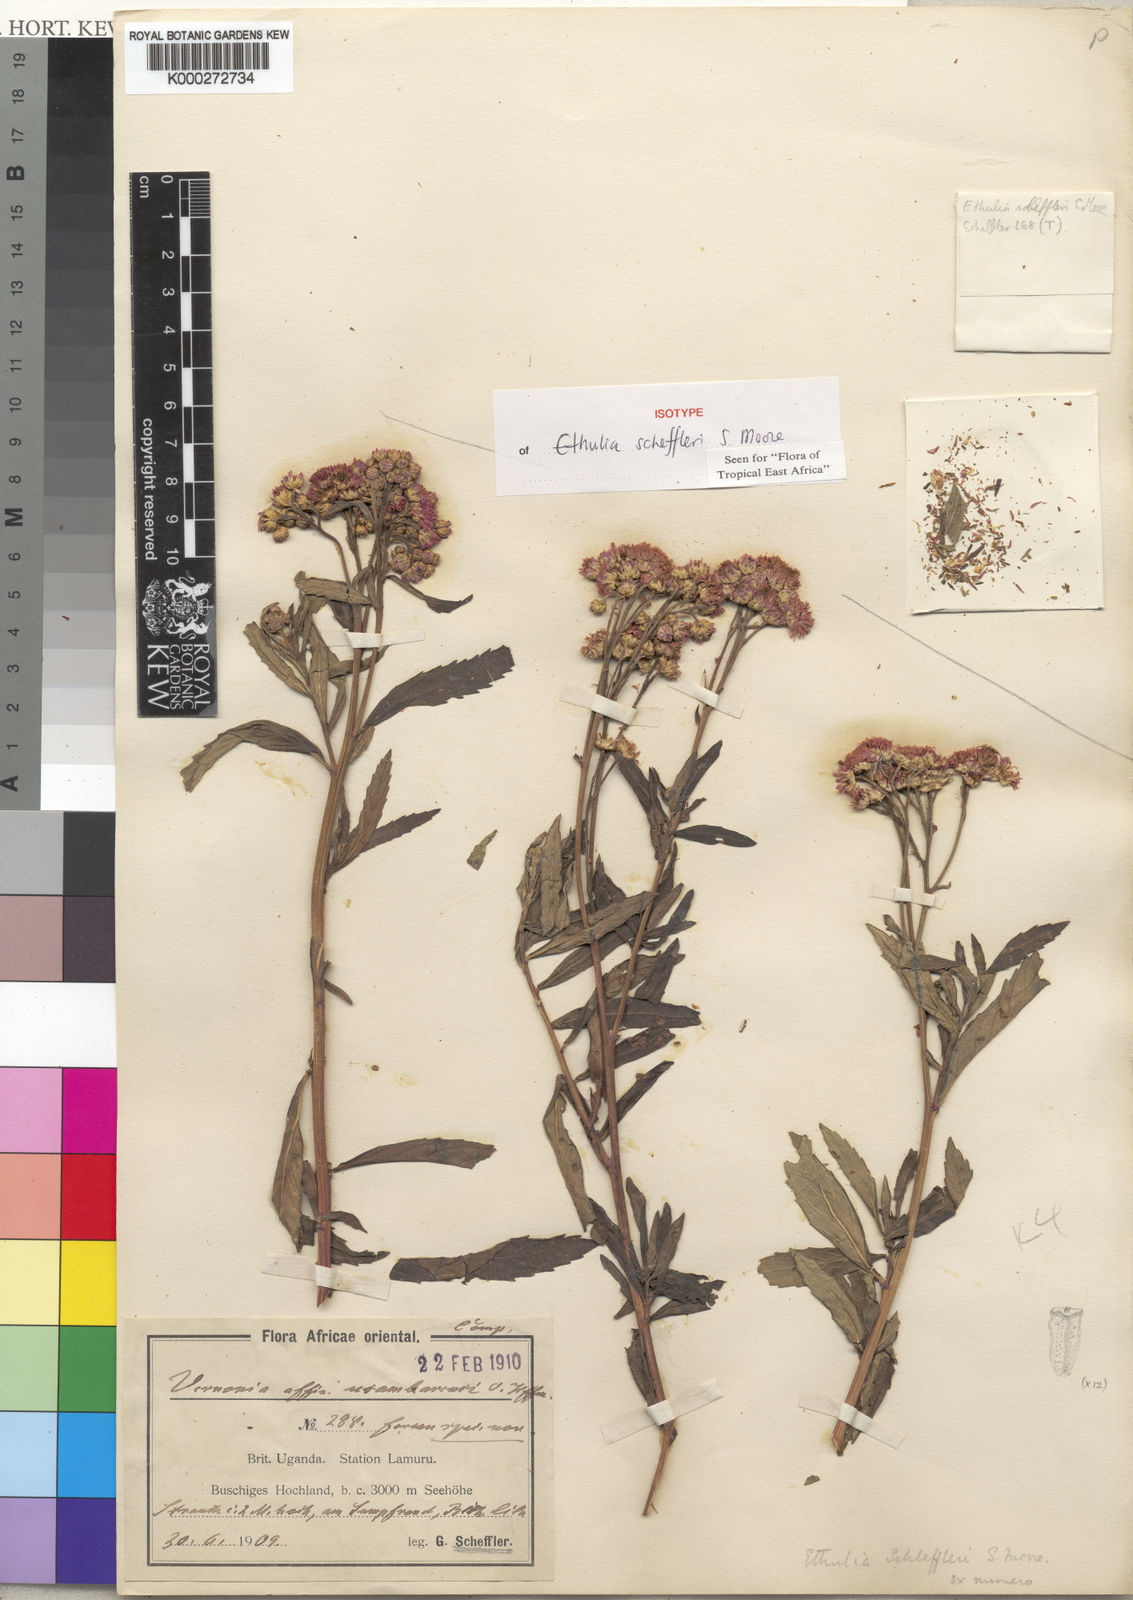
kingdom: Plantae
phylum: Tracheophyta
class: Magnoliopsida
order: Asterales
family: Asteraceae
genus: Ethulia
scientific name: Ethulia scheffleri
